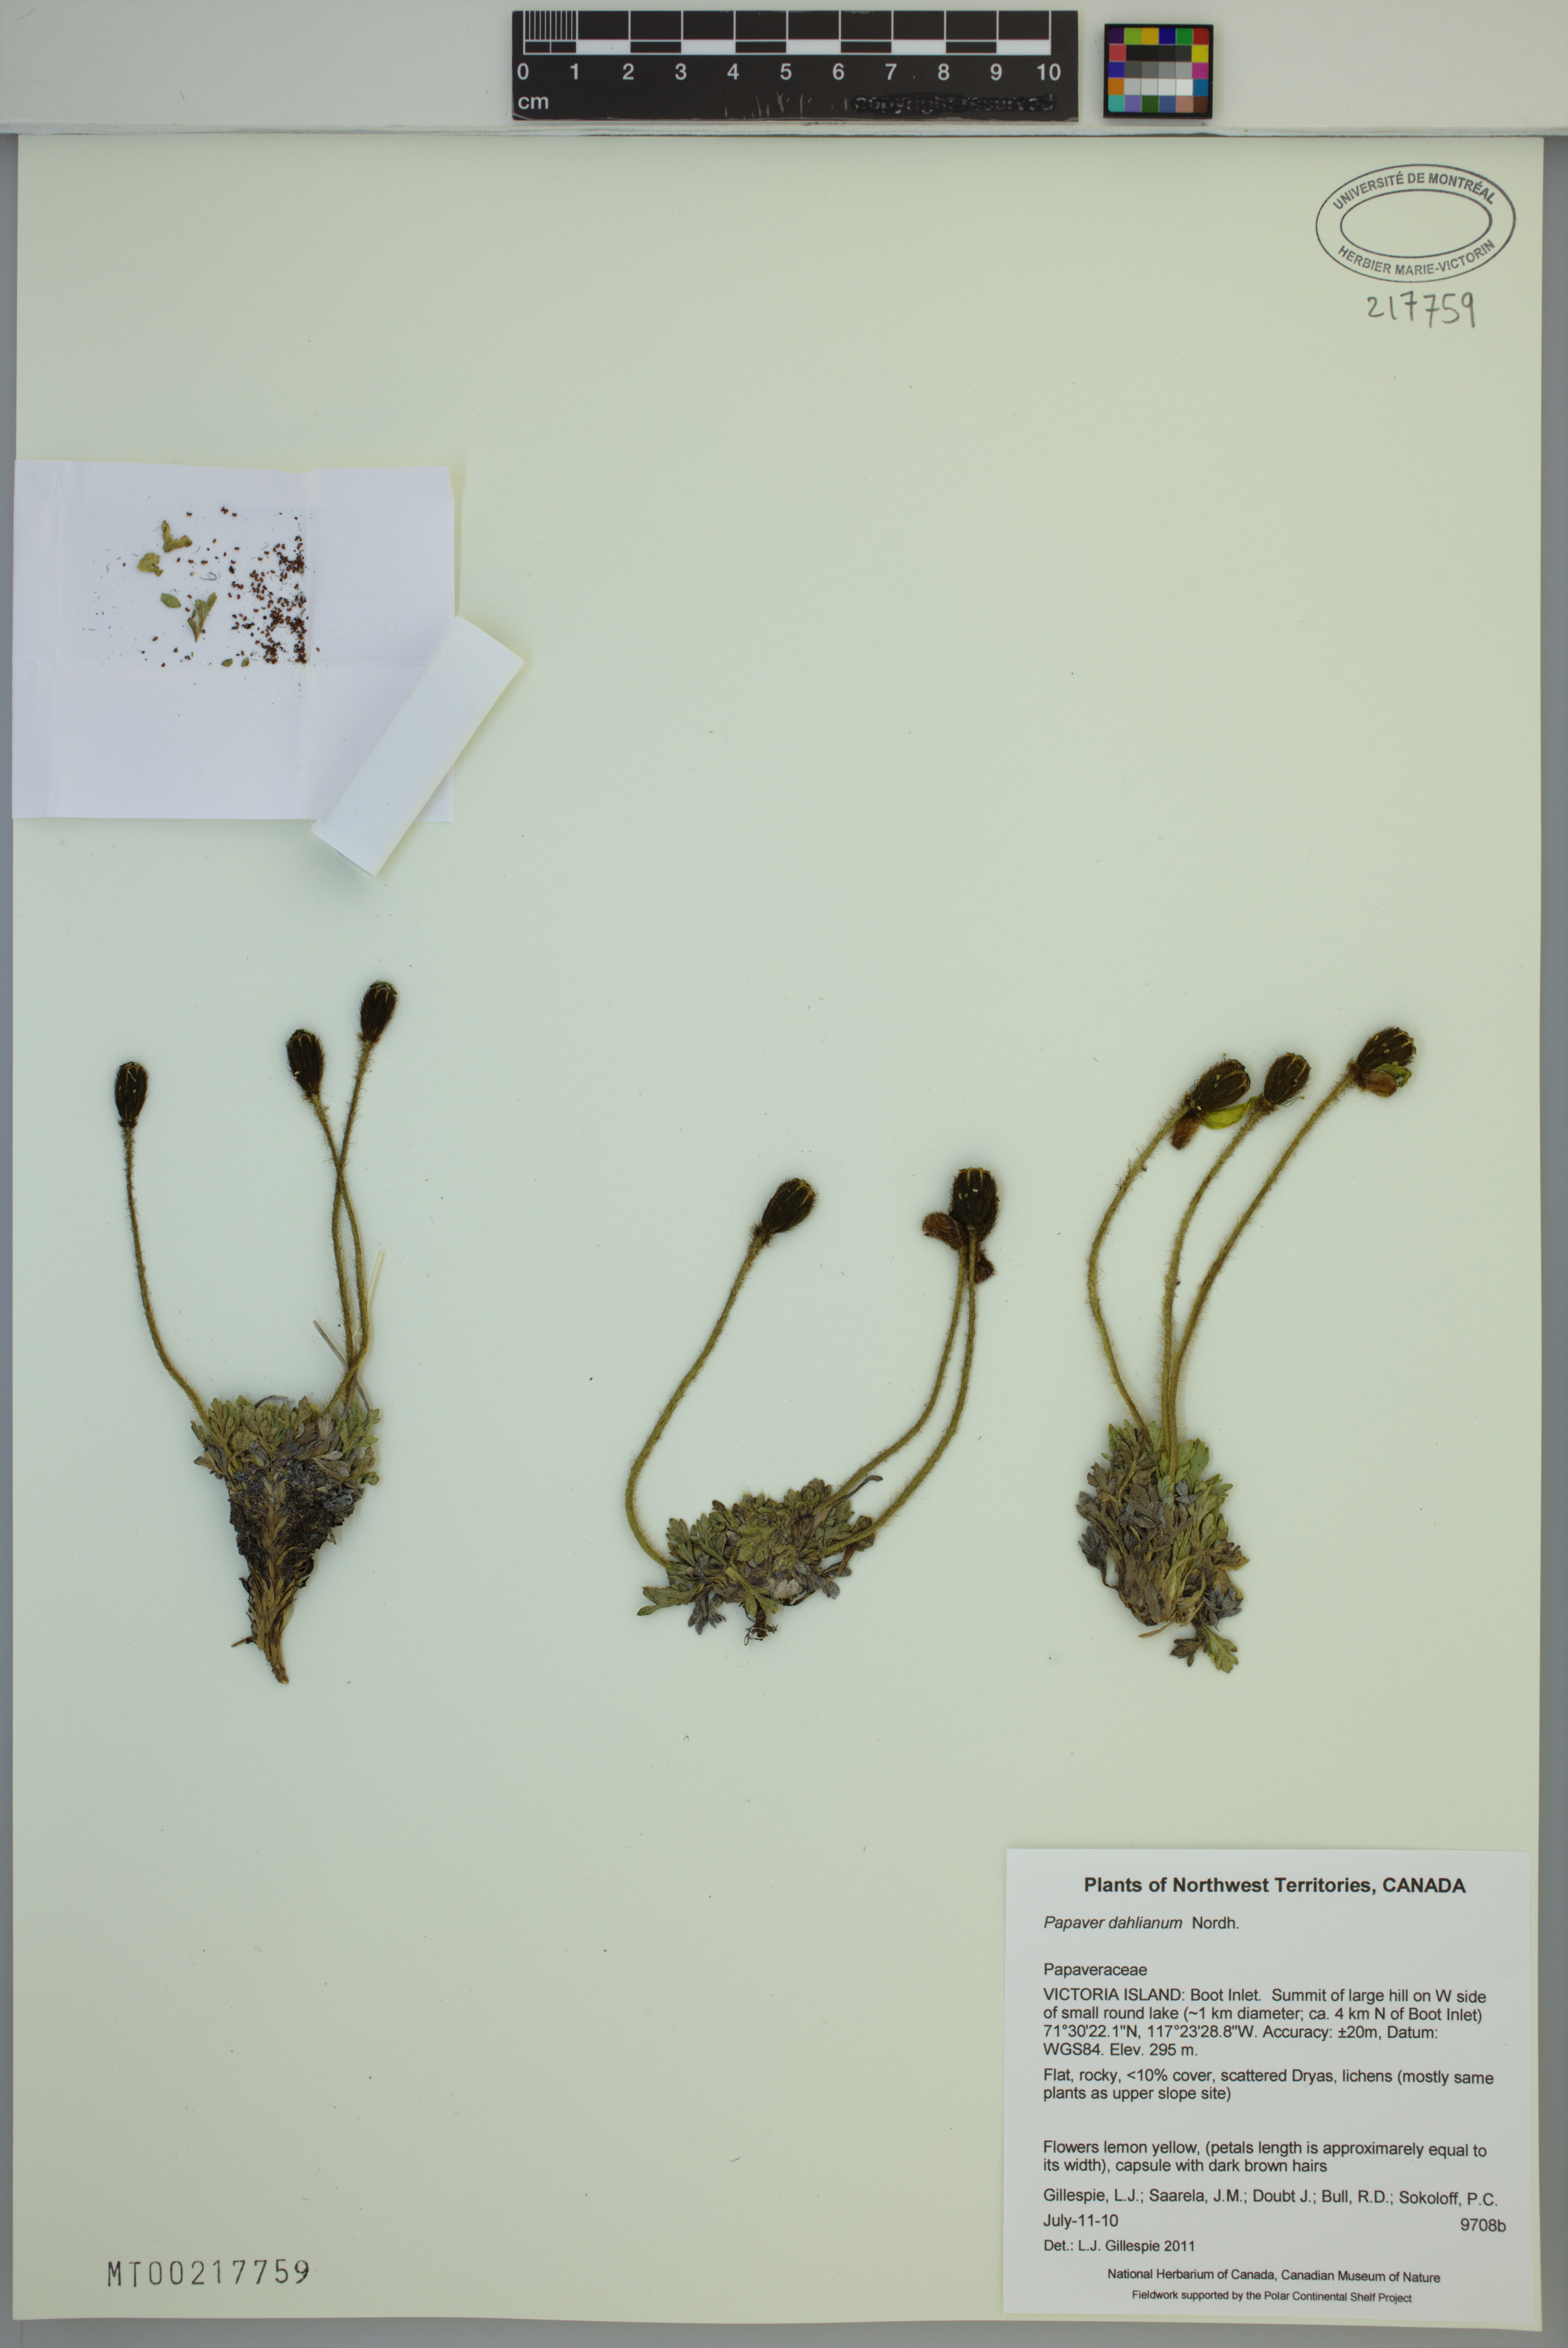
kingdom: Plantae
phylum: Tracheophyta
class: Magnoliopsida
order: Ranunculales
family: Papaveraceae
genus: Papaver
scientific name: Papaver radicatum
